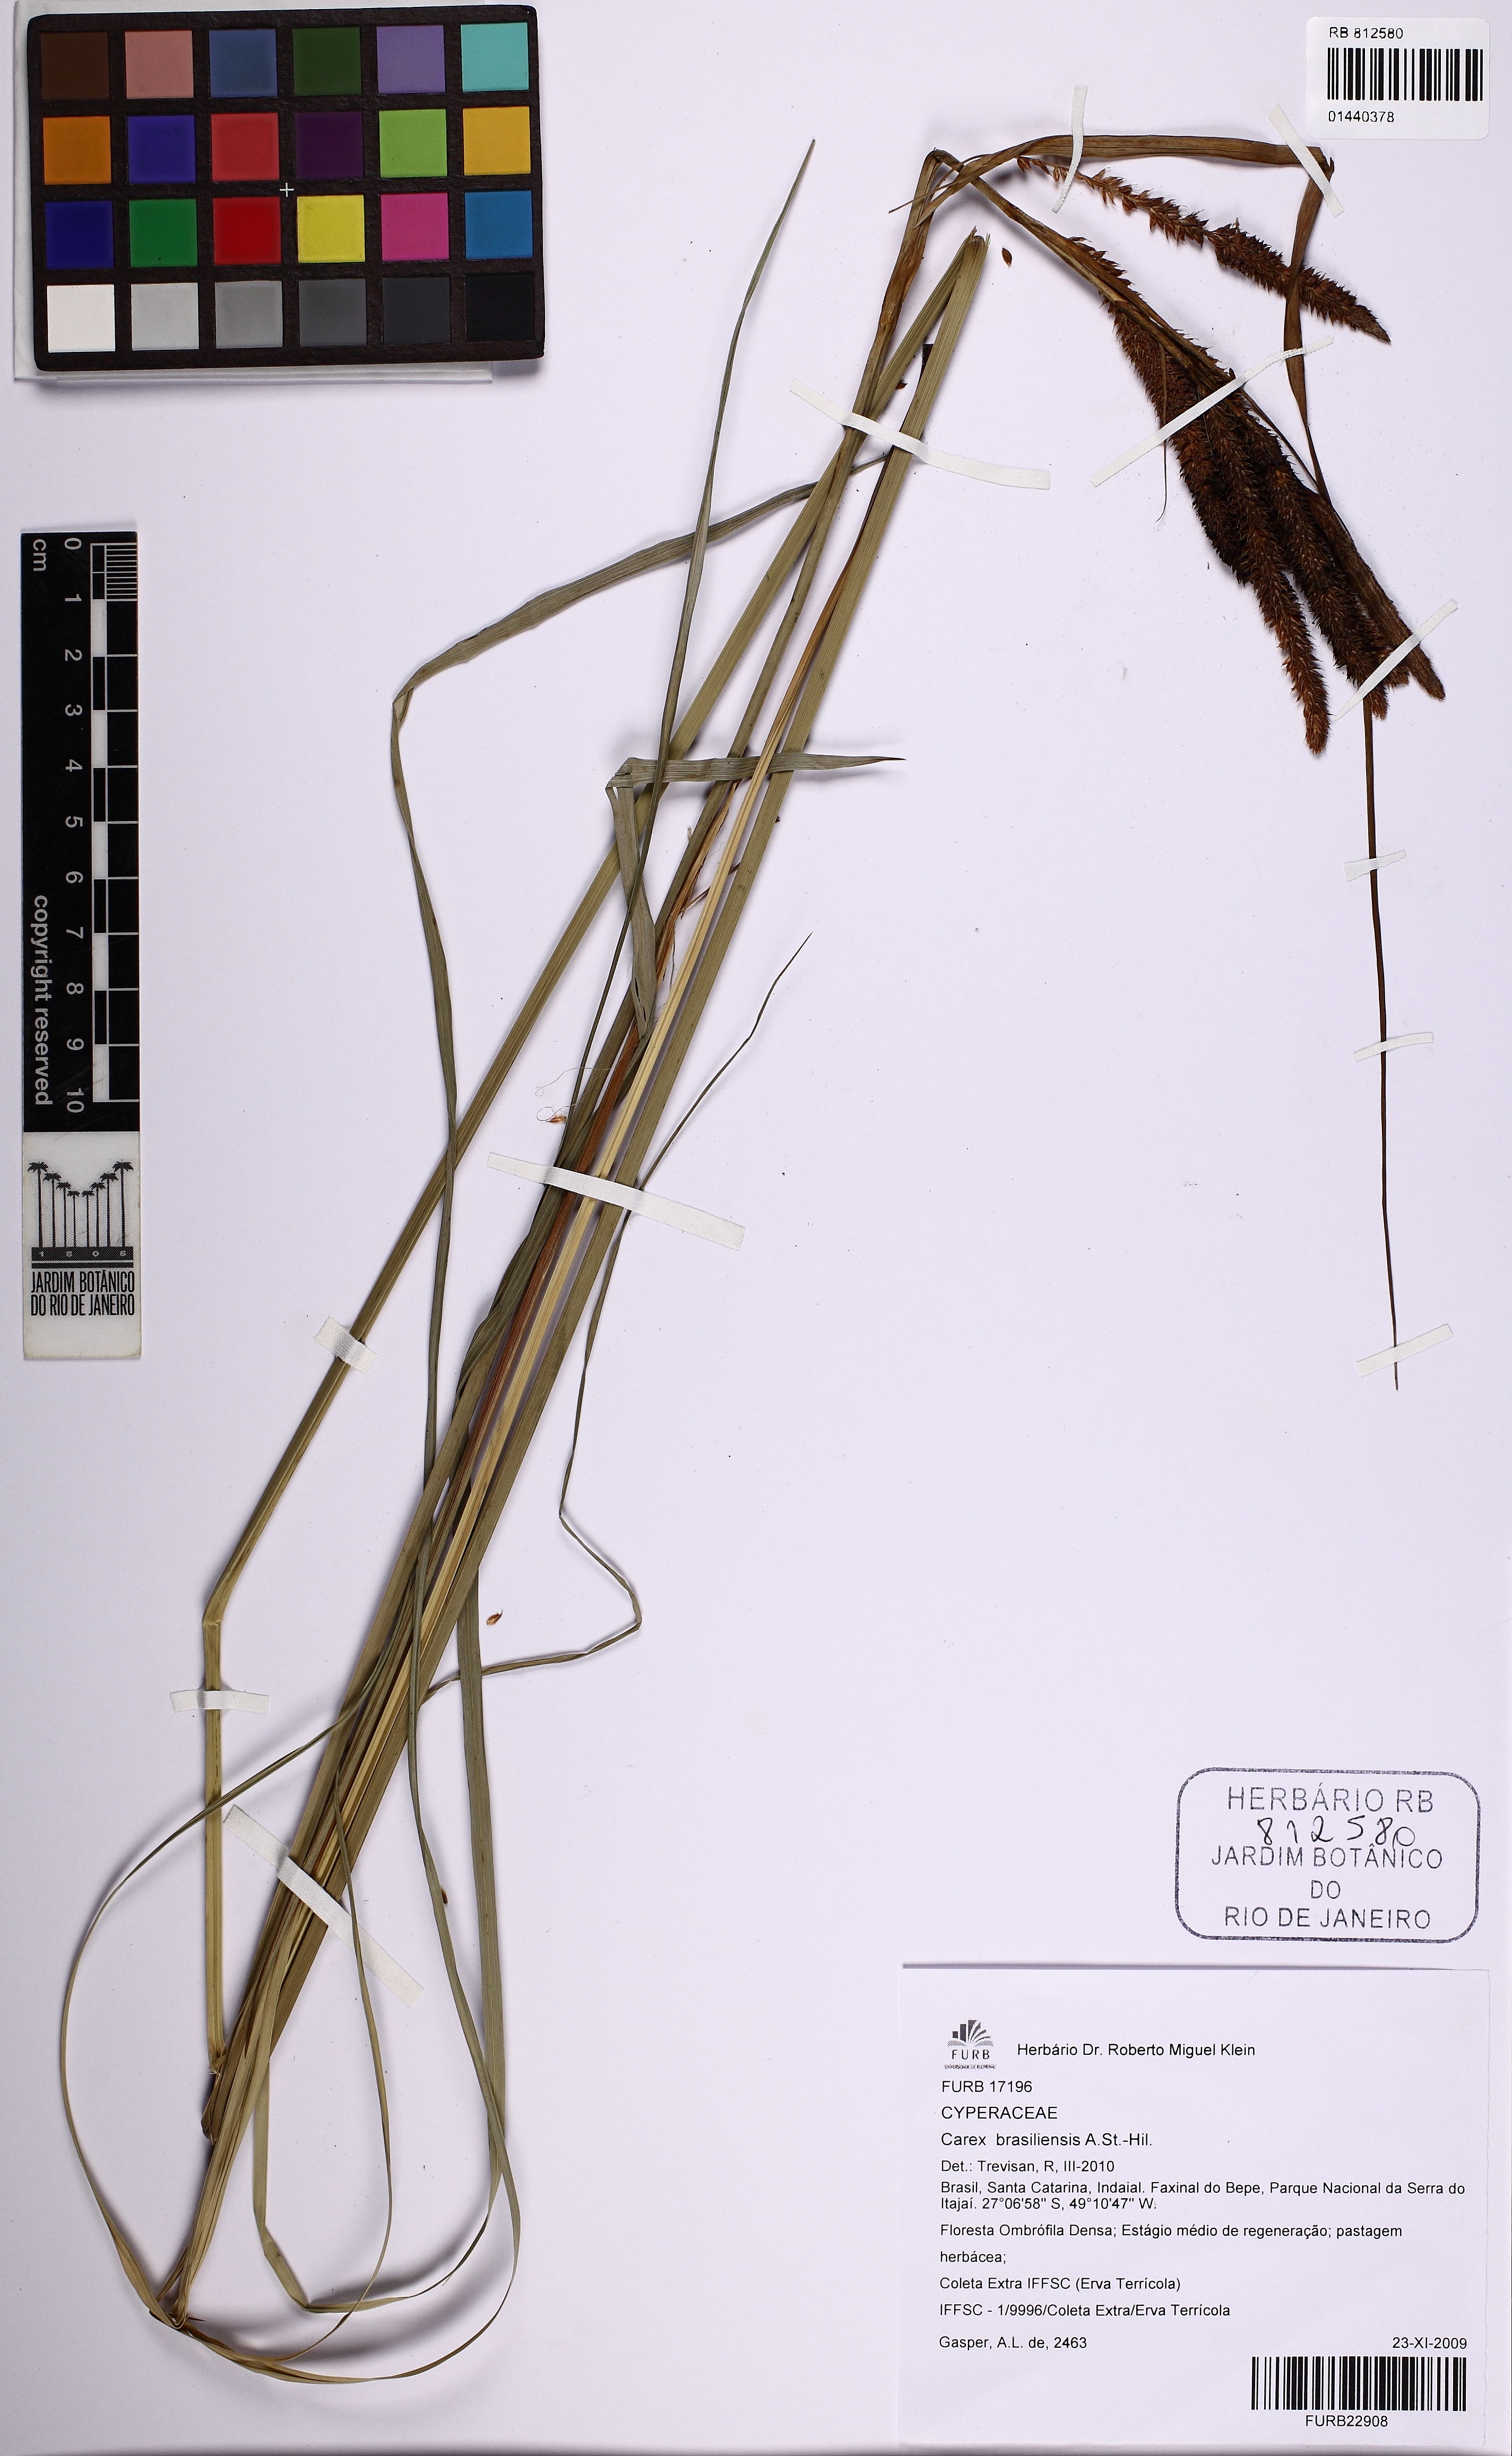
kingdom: Plantae
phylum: Tracheophyta
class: Liliopsida
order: Poales
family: Cyperaceae
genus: Carex
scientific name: Carex brasiliensis
